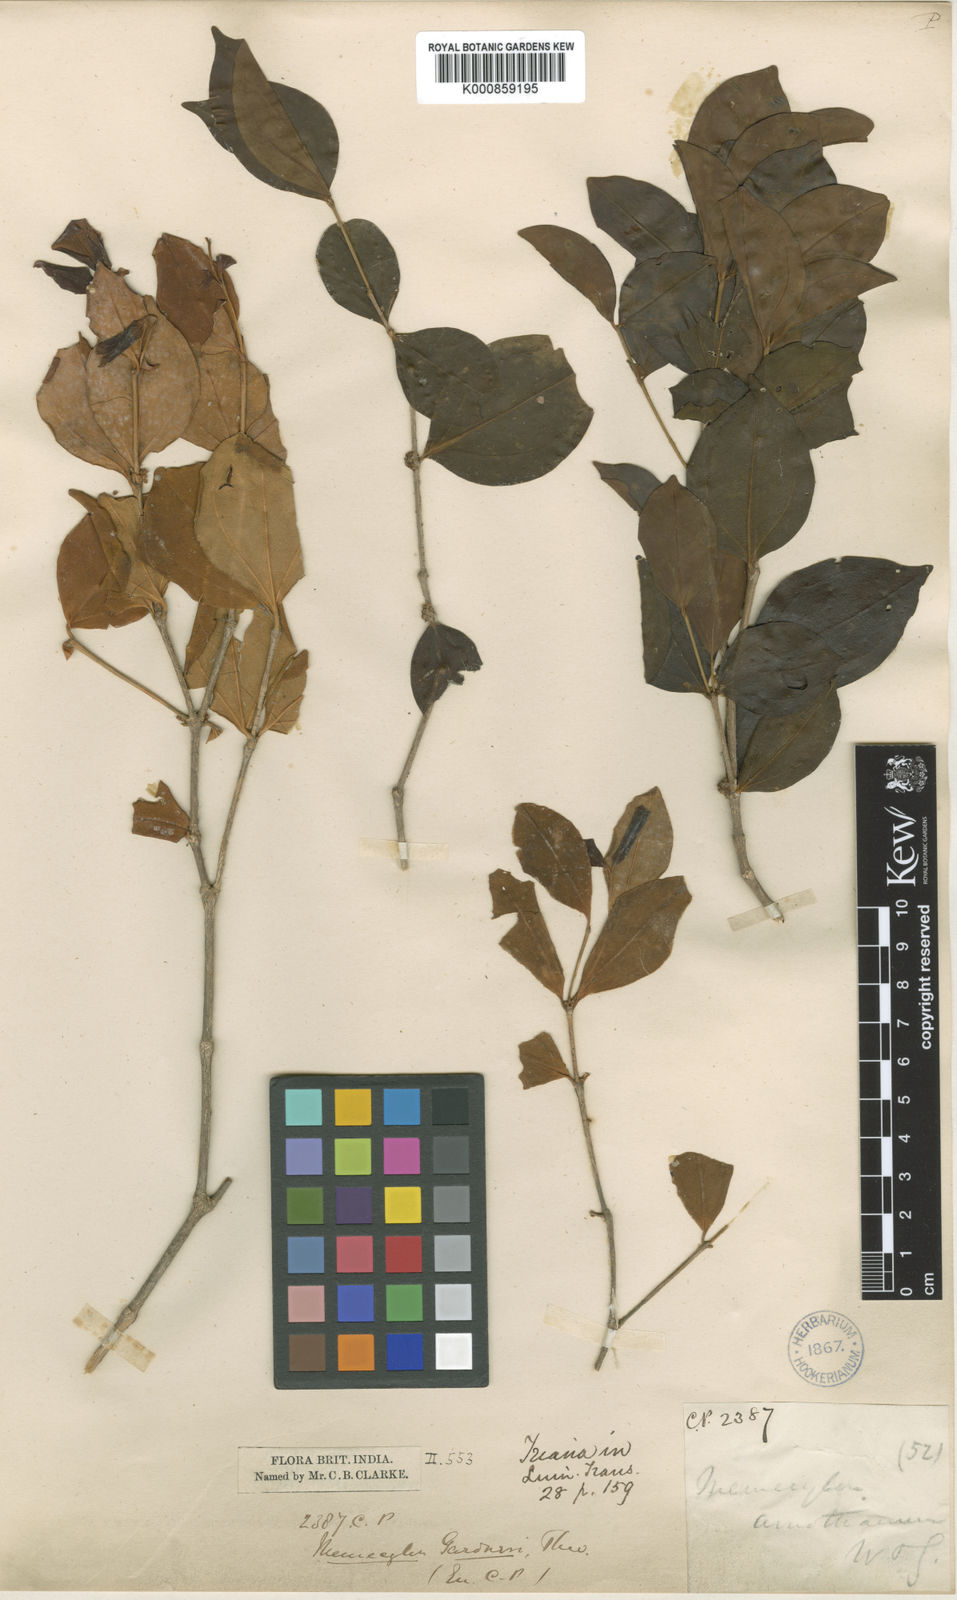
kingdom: Plantae
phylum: Tracheophyta
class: Magnoliopsida
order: Myrtales
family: Melastomataceae
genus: Lijndenia
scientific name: Lijndenia gardneri
